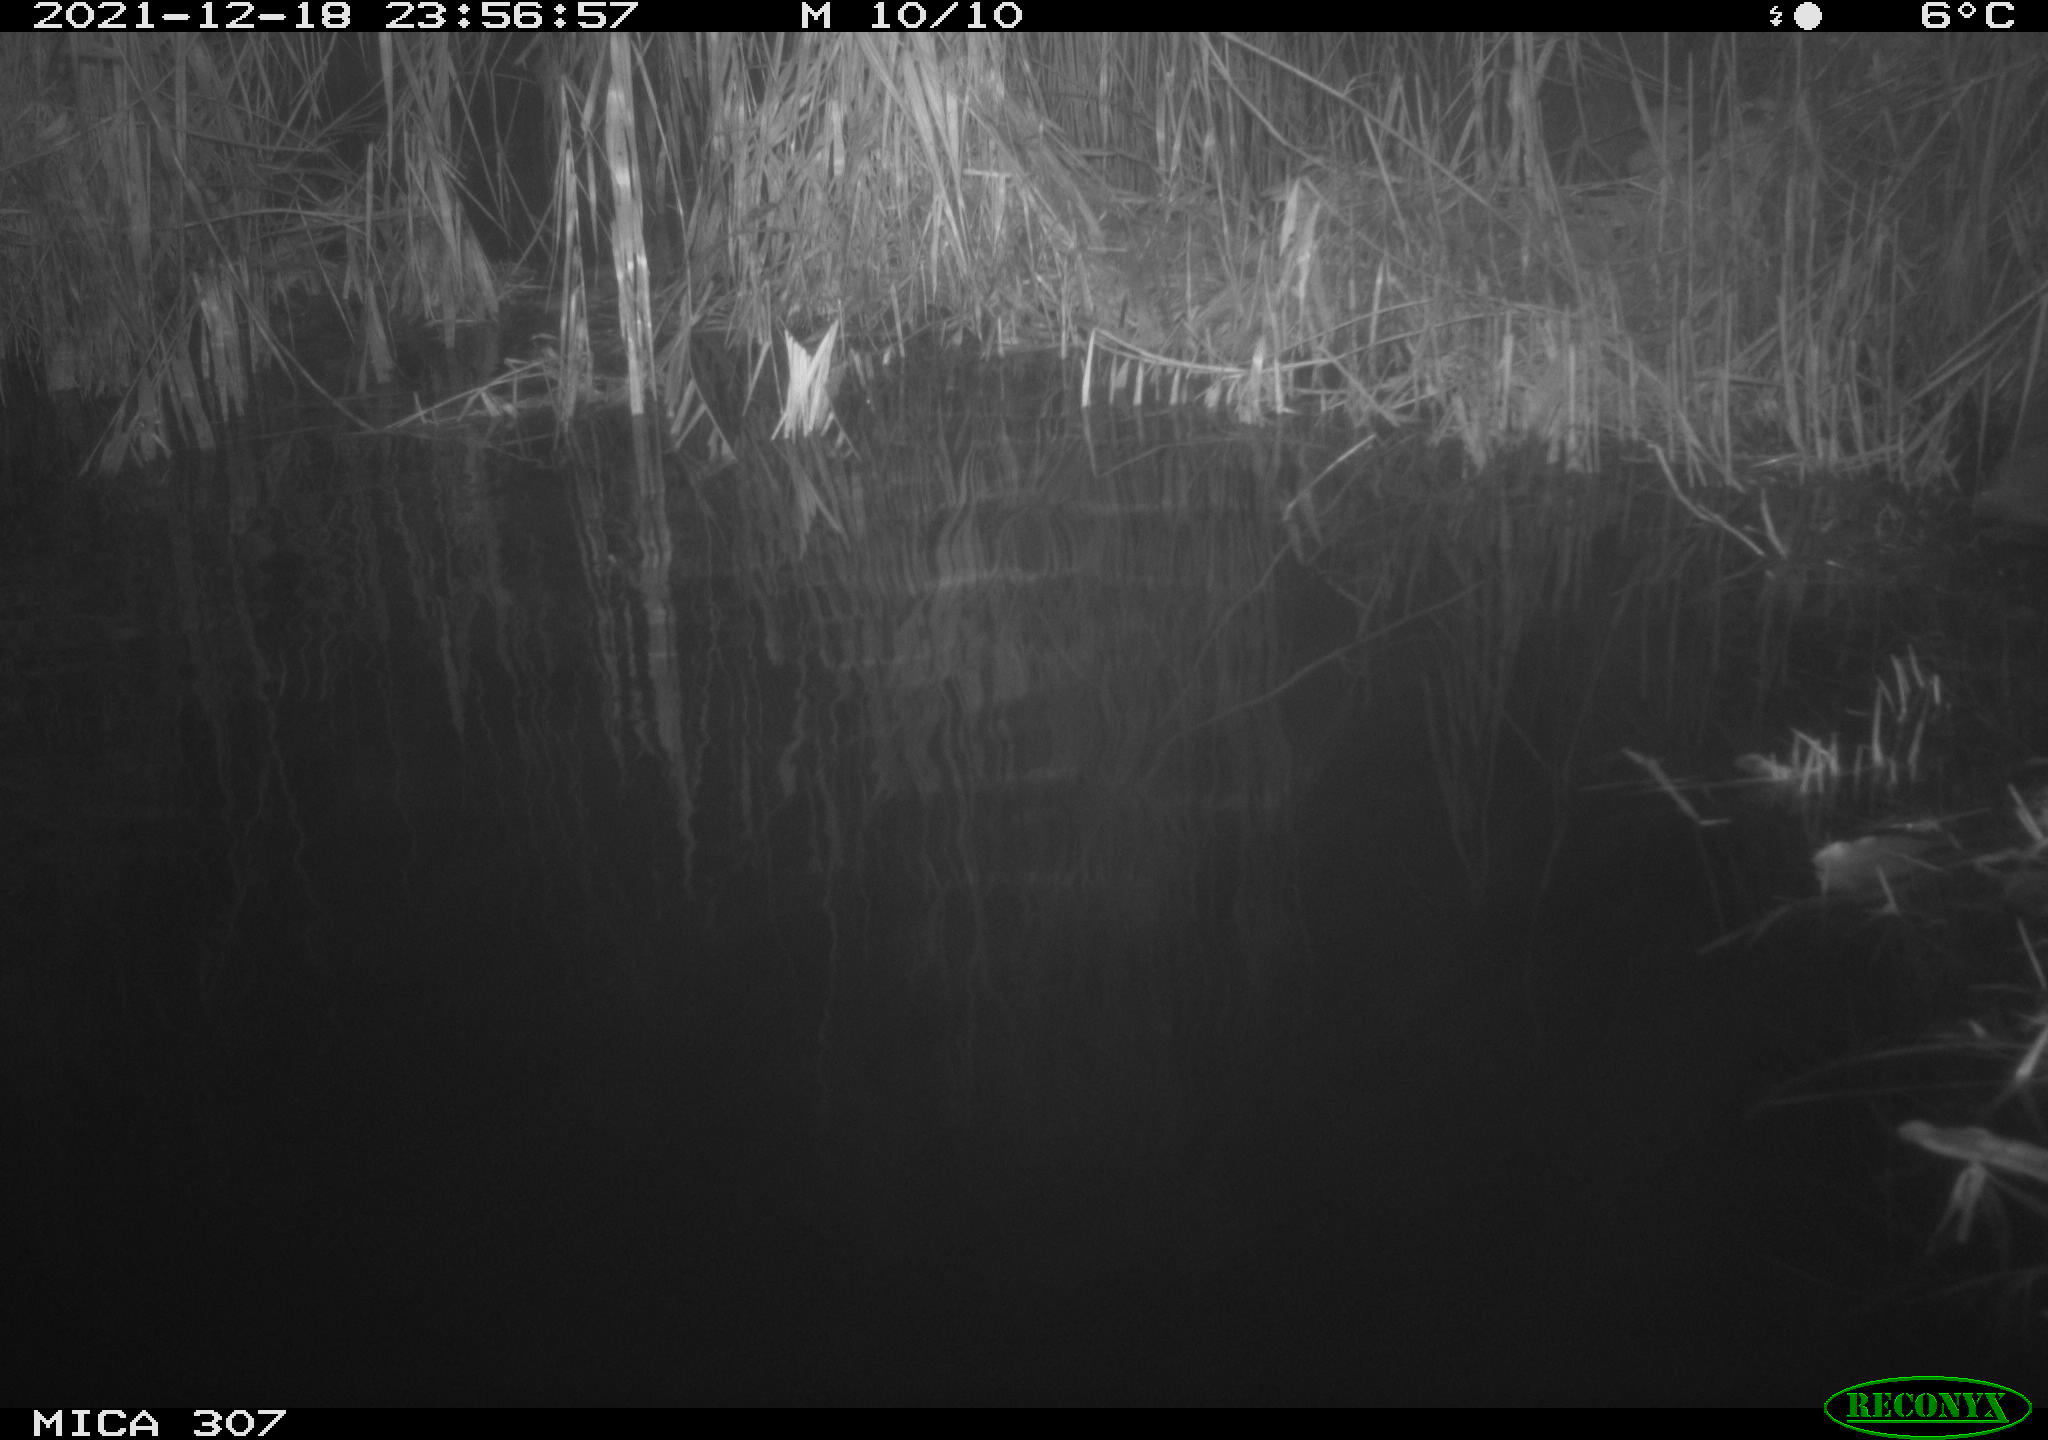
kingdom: Animalia
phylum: Chordata
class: Mammalia
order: Rodentia
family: Muridae
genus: Rattus
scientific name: Rattus norvegicus
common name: Brown rat
